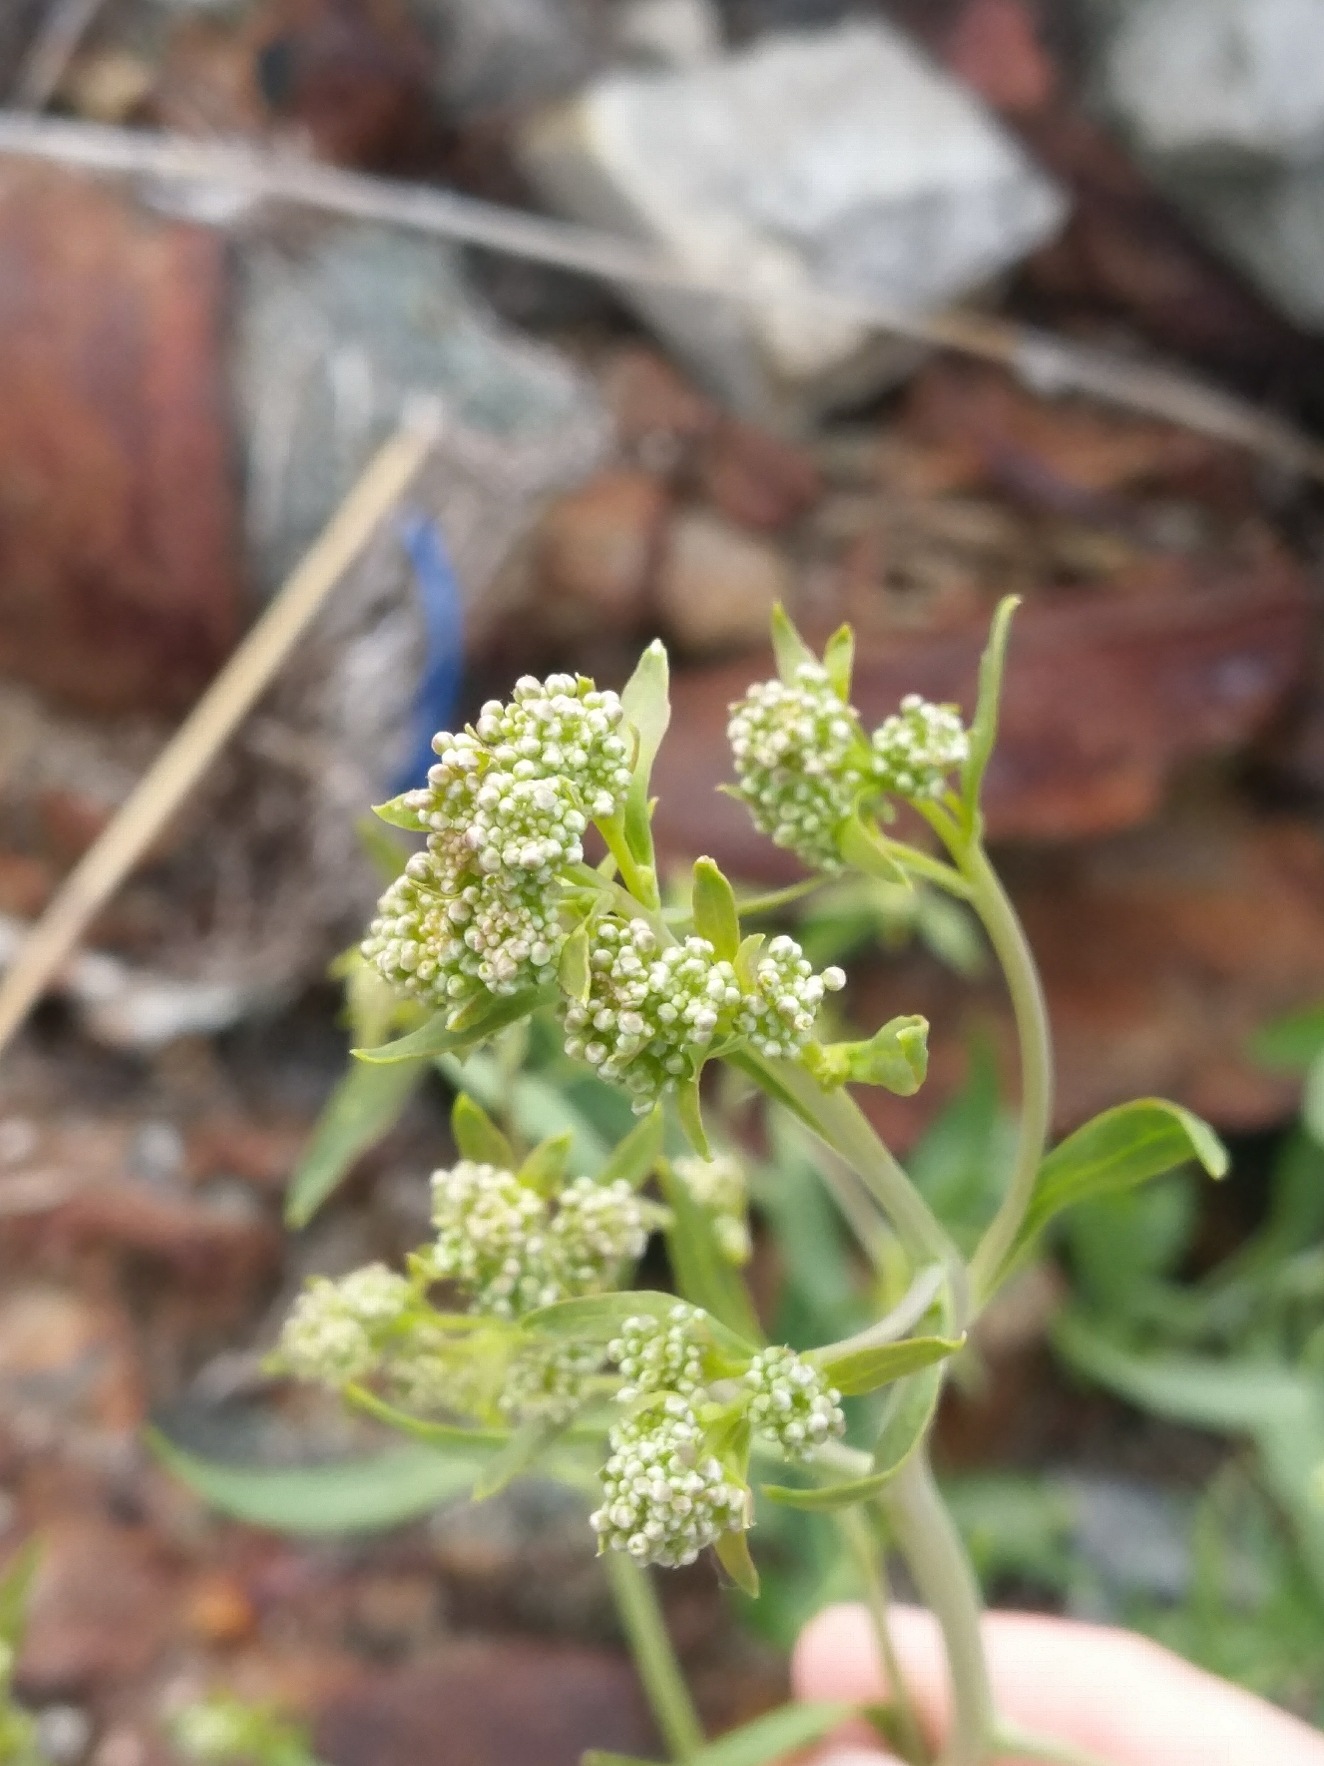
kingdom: Plantae
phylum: Tracheophyta
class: Magnoliopsida
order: Brassicales
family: Brassicaceae
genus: Lepidium
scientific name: Lepidium latifolium
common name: Strand-karse
